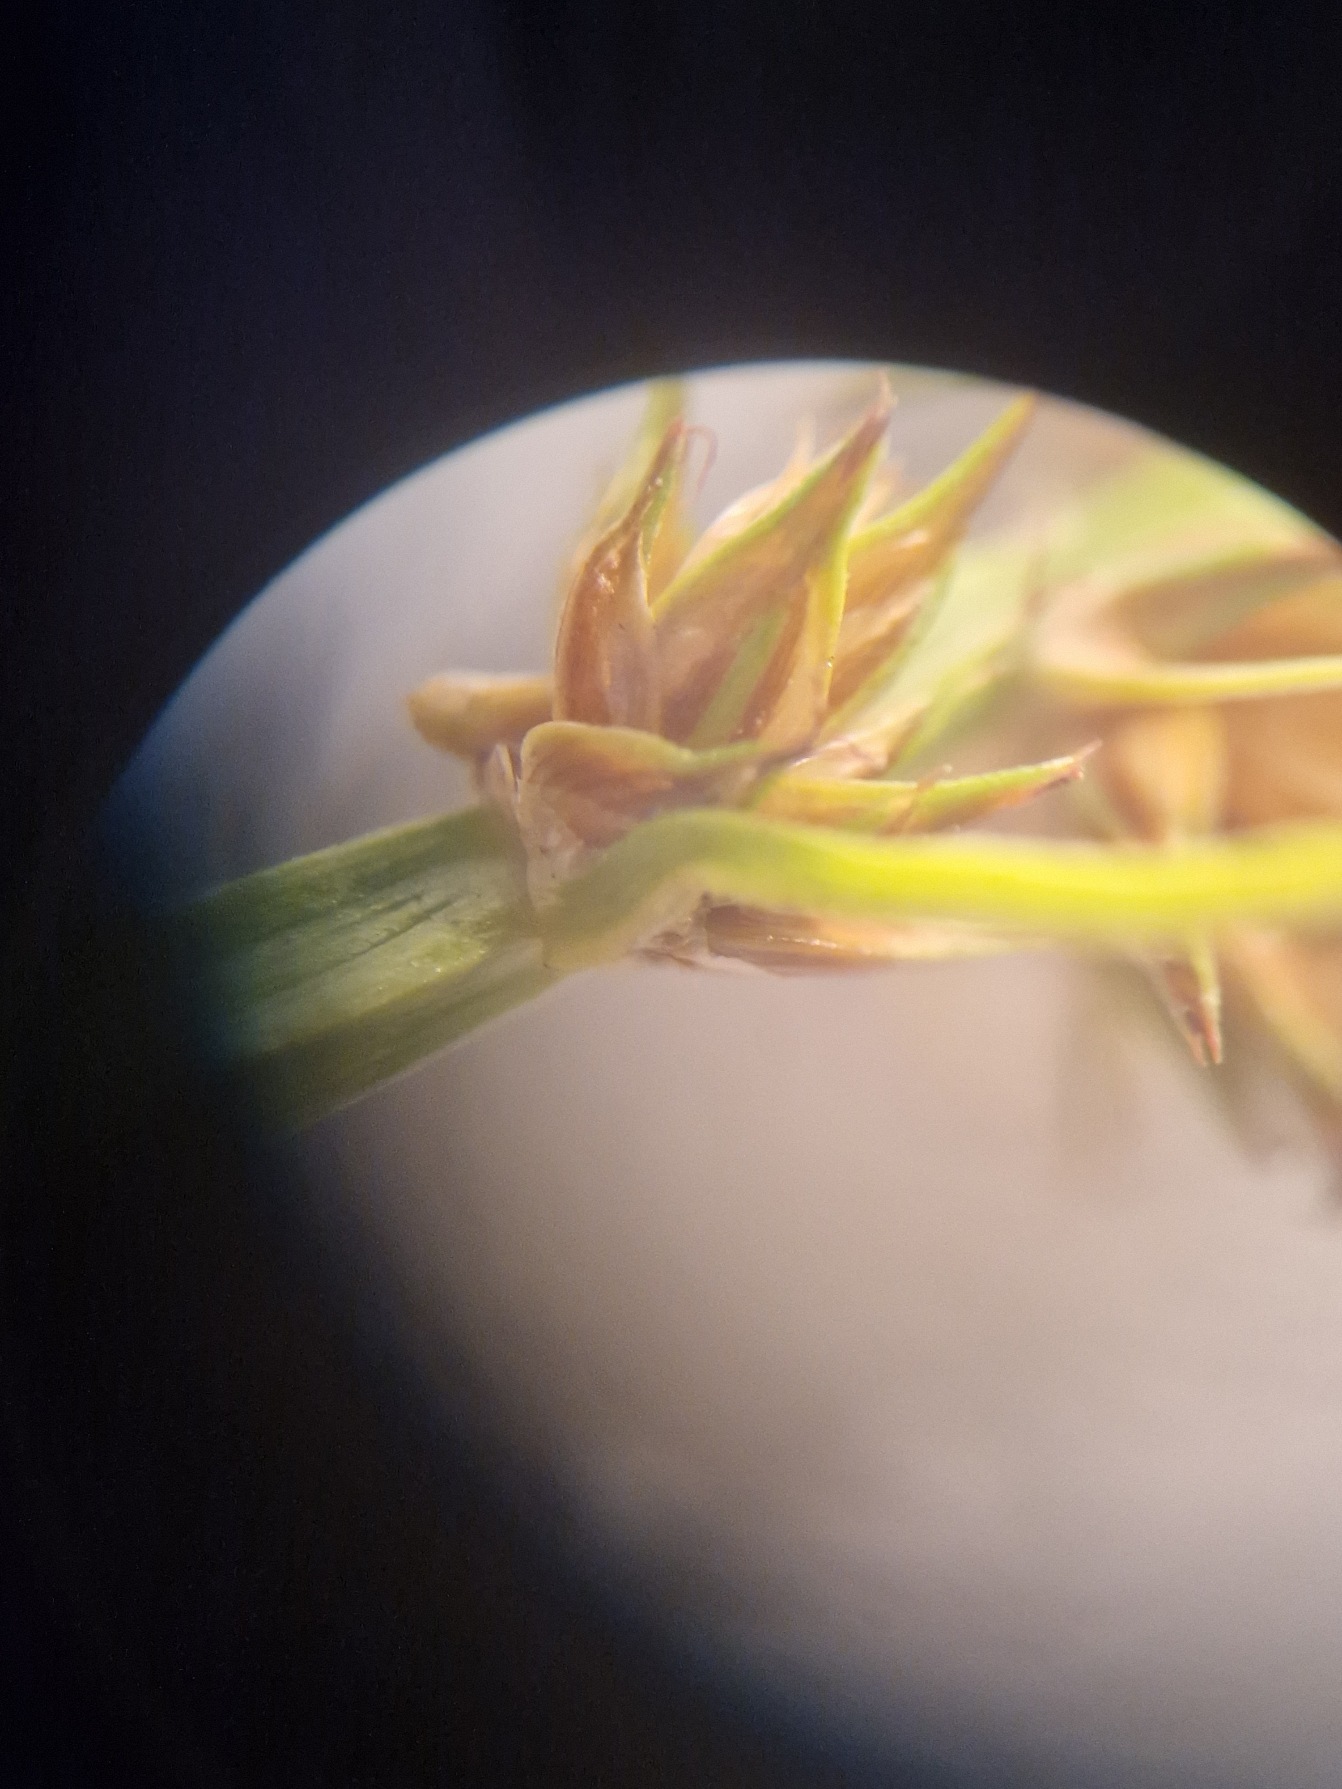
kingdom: Plantae
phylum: Tracheophyta
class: Liliopsida
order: Poales
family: Cyperaceae
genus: Carex
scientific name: Carex otrubae
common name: Sylt-star
